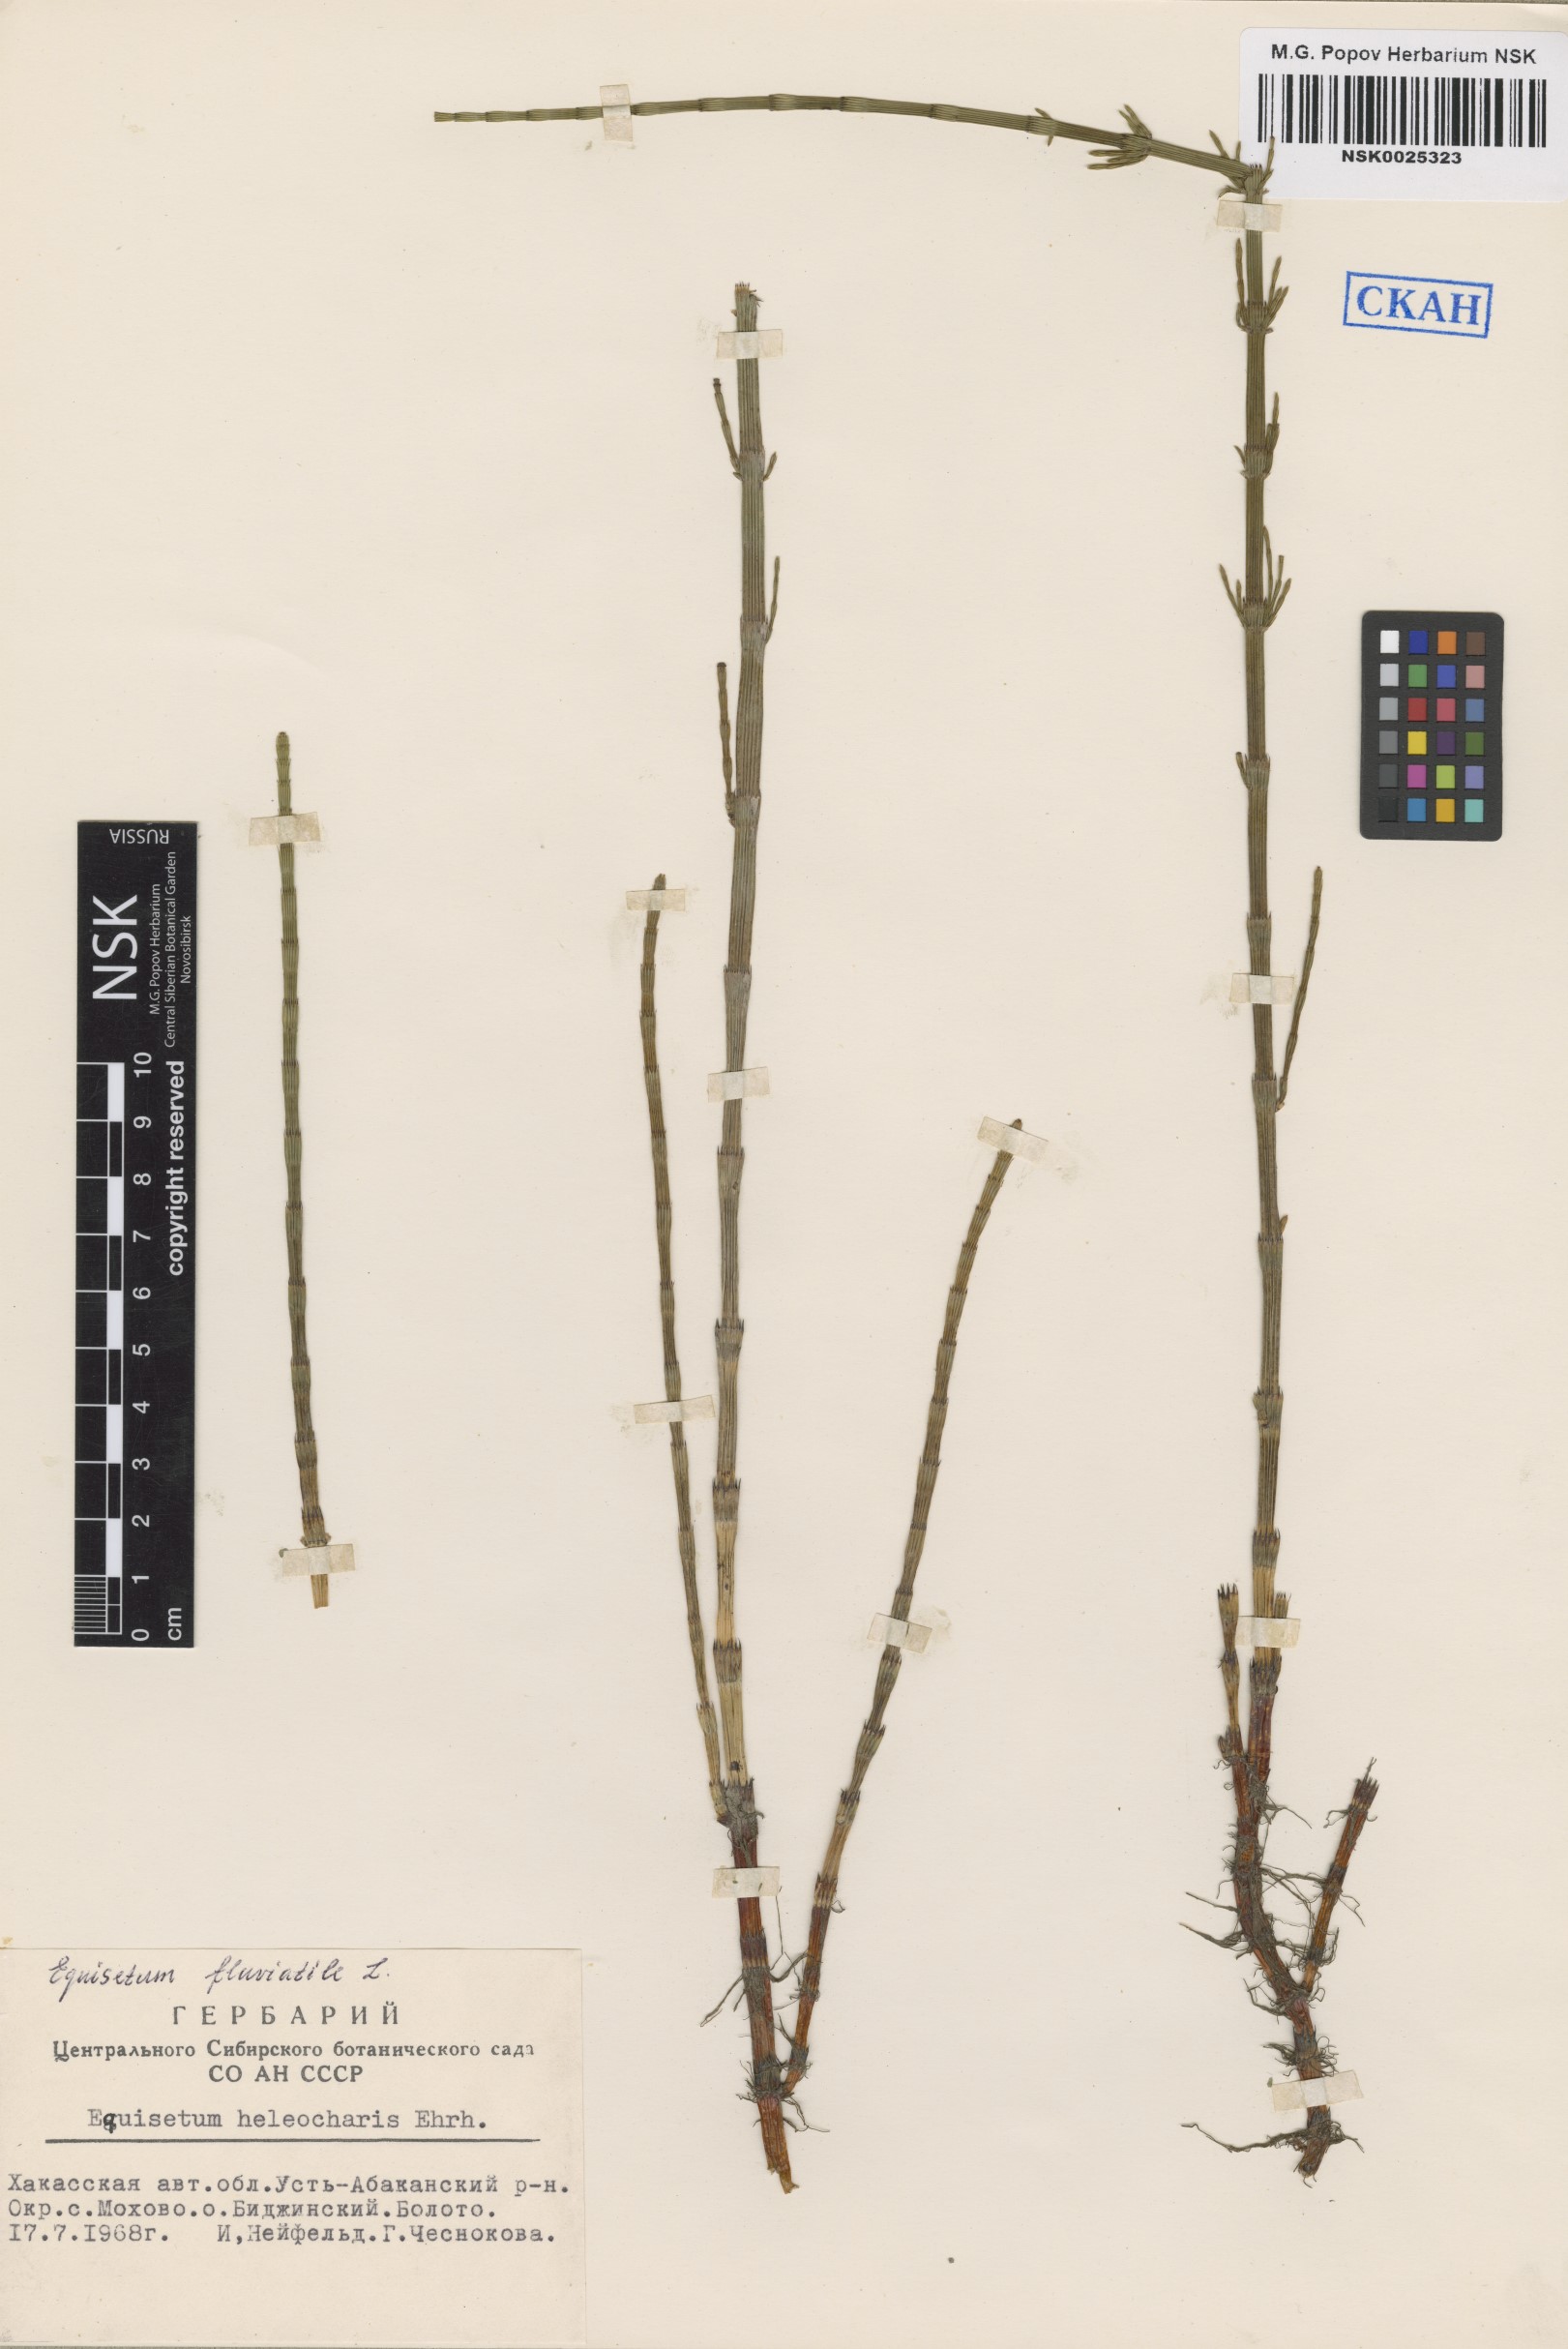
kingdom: Plantae
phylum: Tracheophyta
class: Polypodiopsida
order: Equisetales
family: Equisetaceae
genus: Equisetum
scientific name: Equisetum fluviatile
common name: Water horsetail
